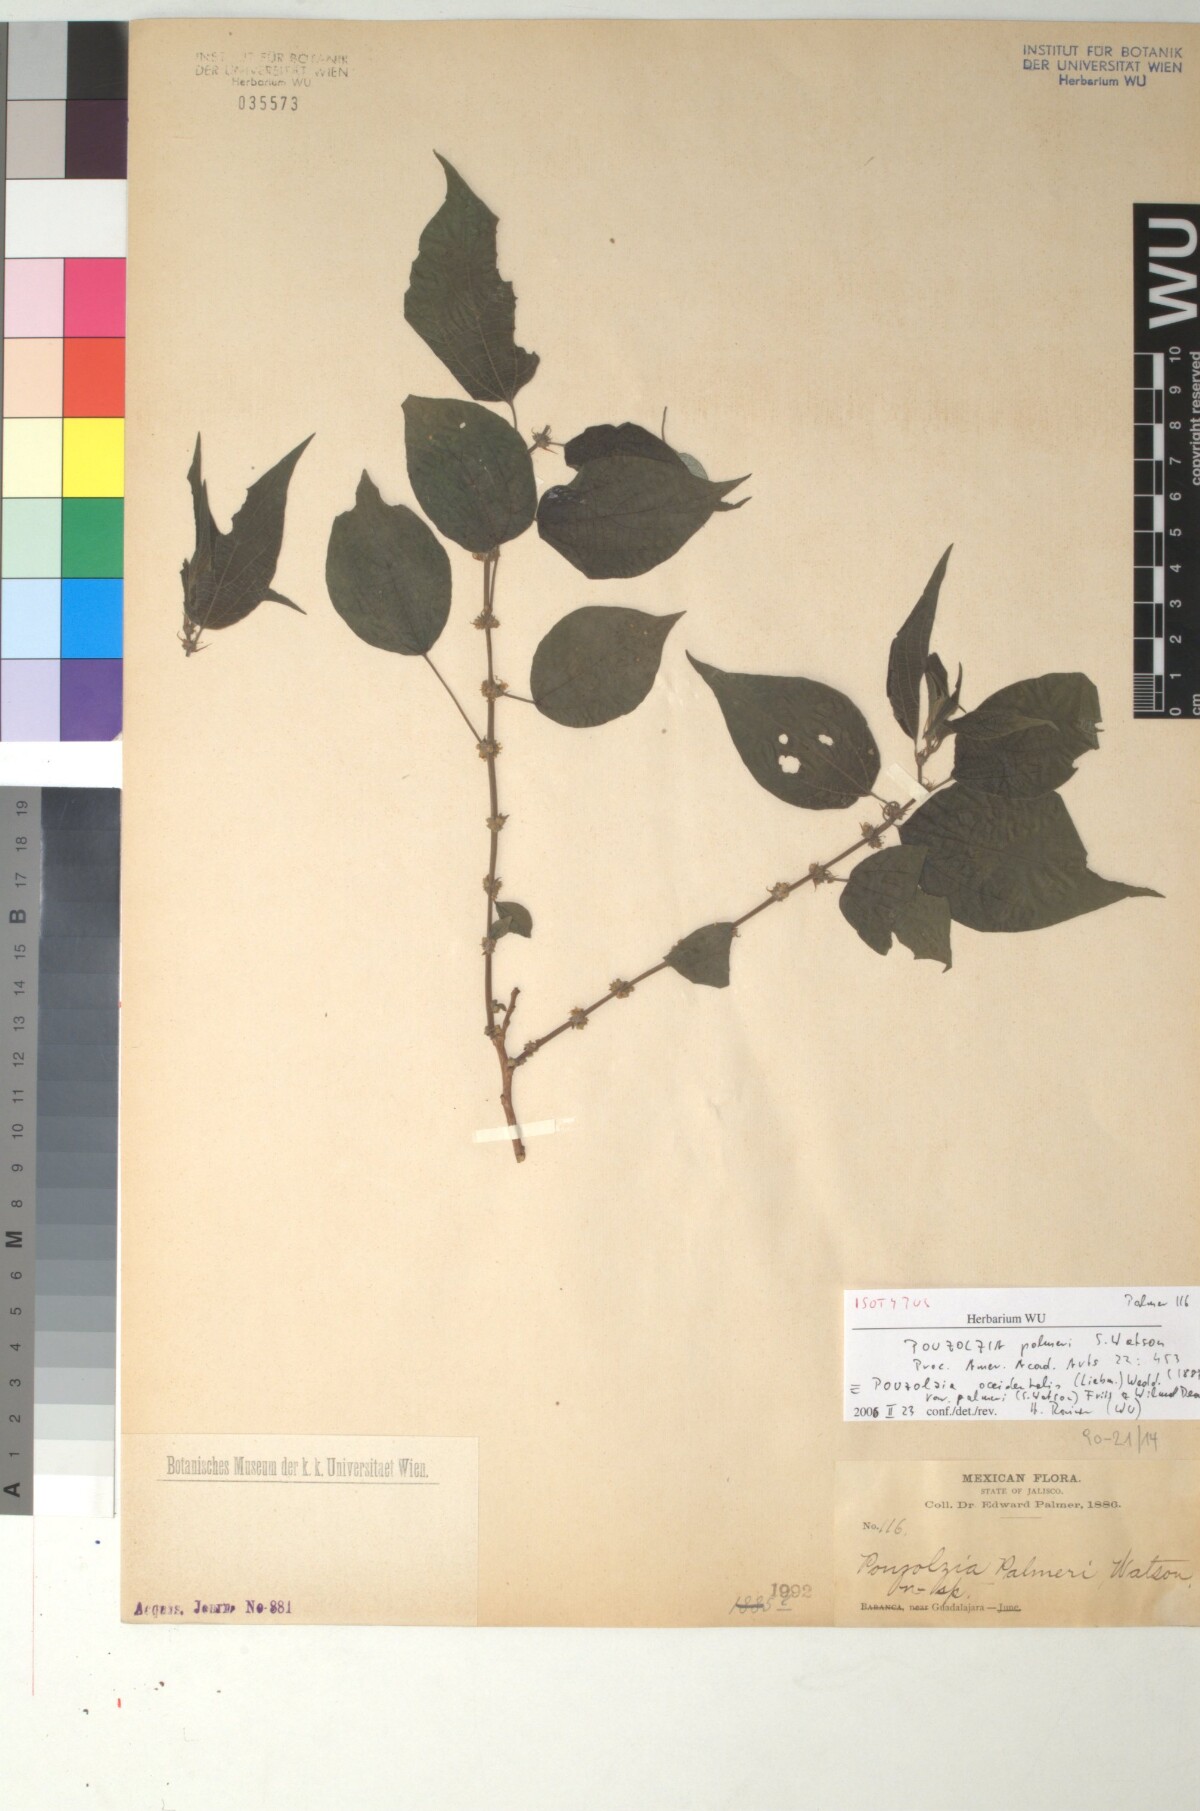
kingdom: Plantae
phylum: Tracheophyta
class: Magnoliopsida
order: Rosales
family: Urticaceae
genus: Pouzolzia
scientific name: Pouzolzia occidentalis
